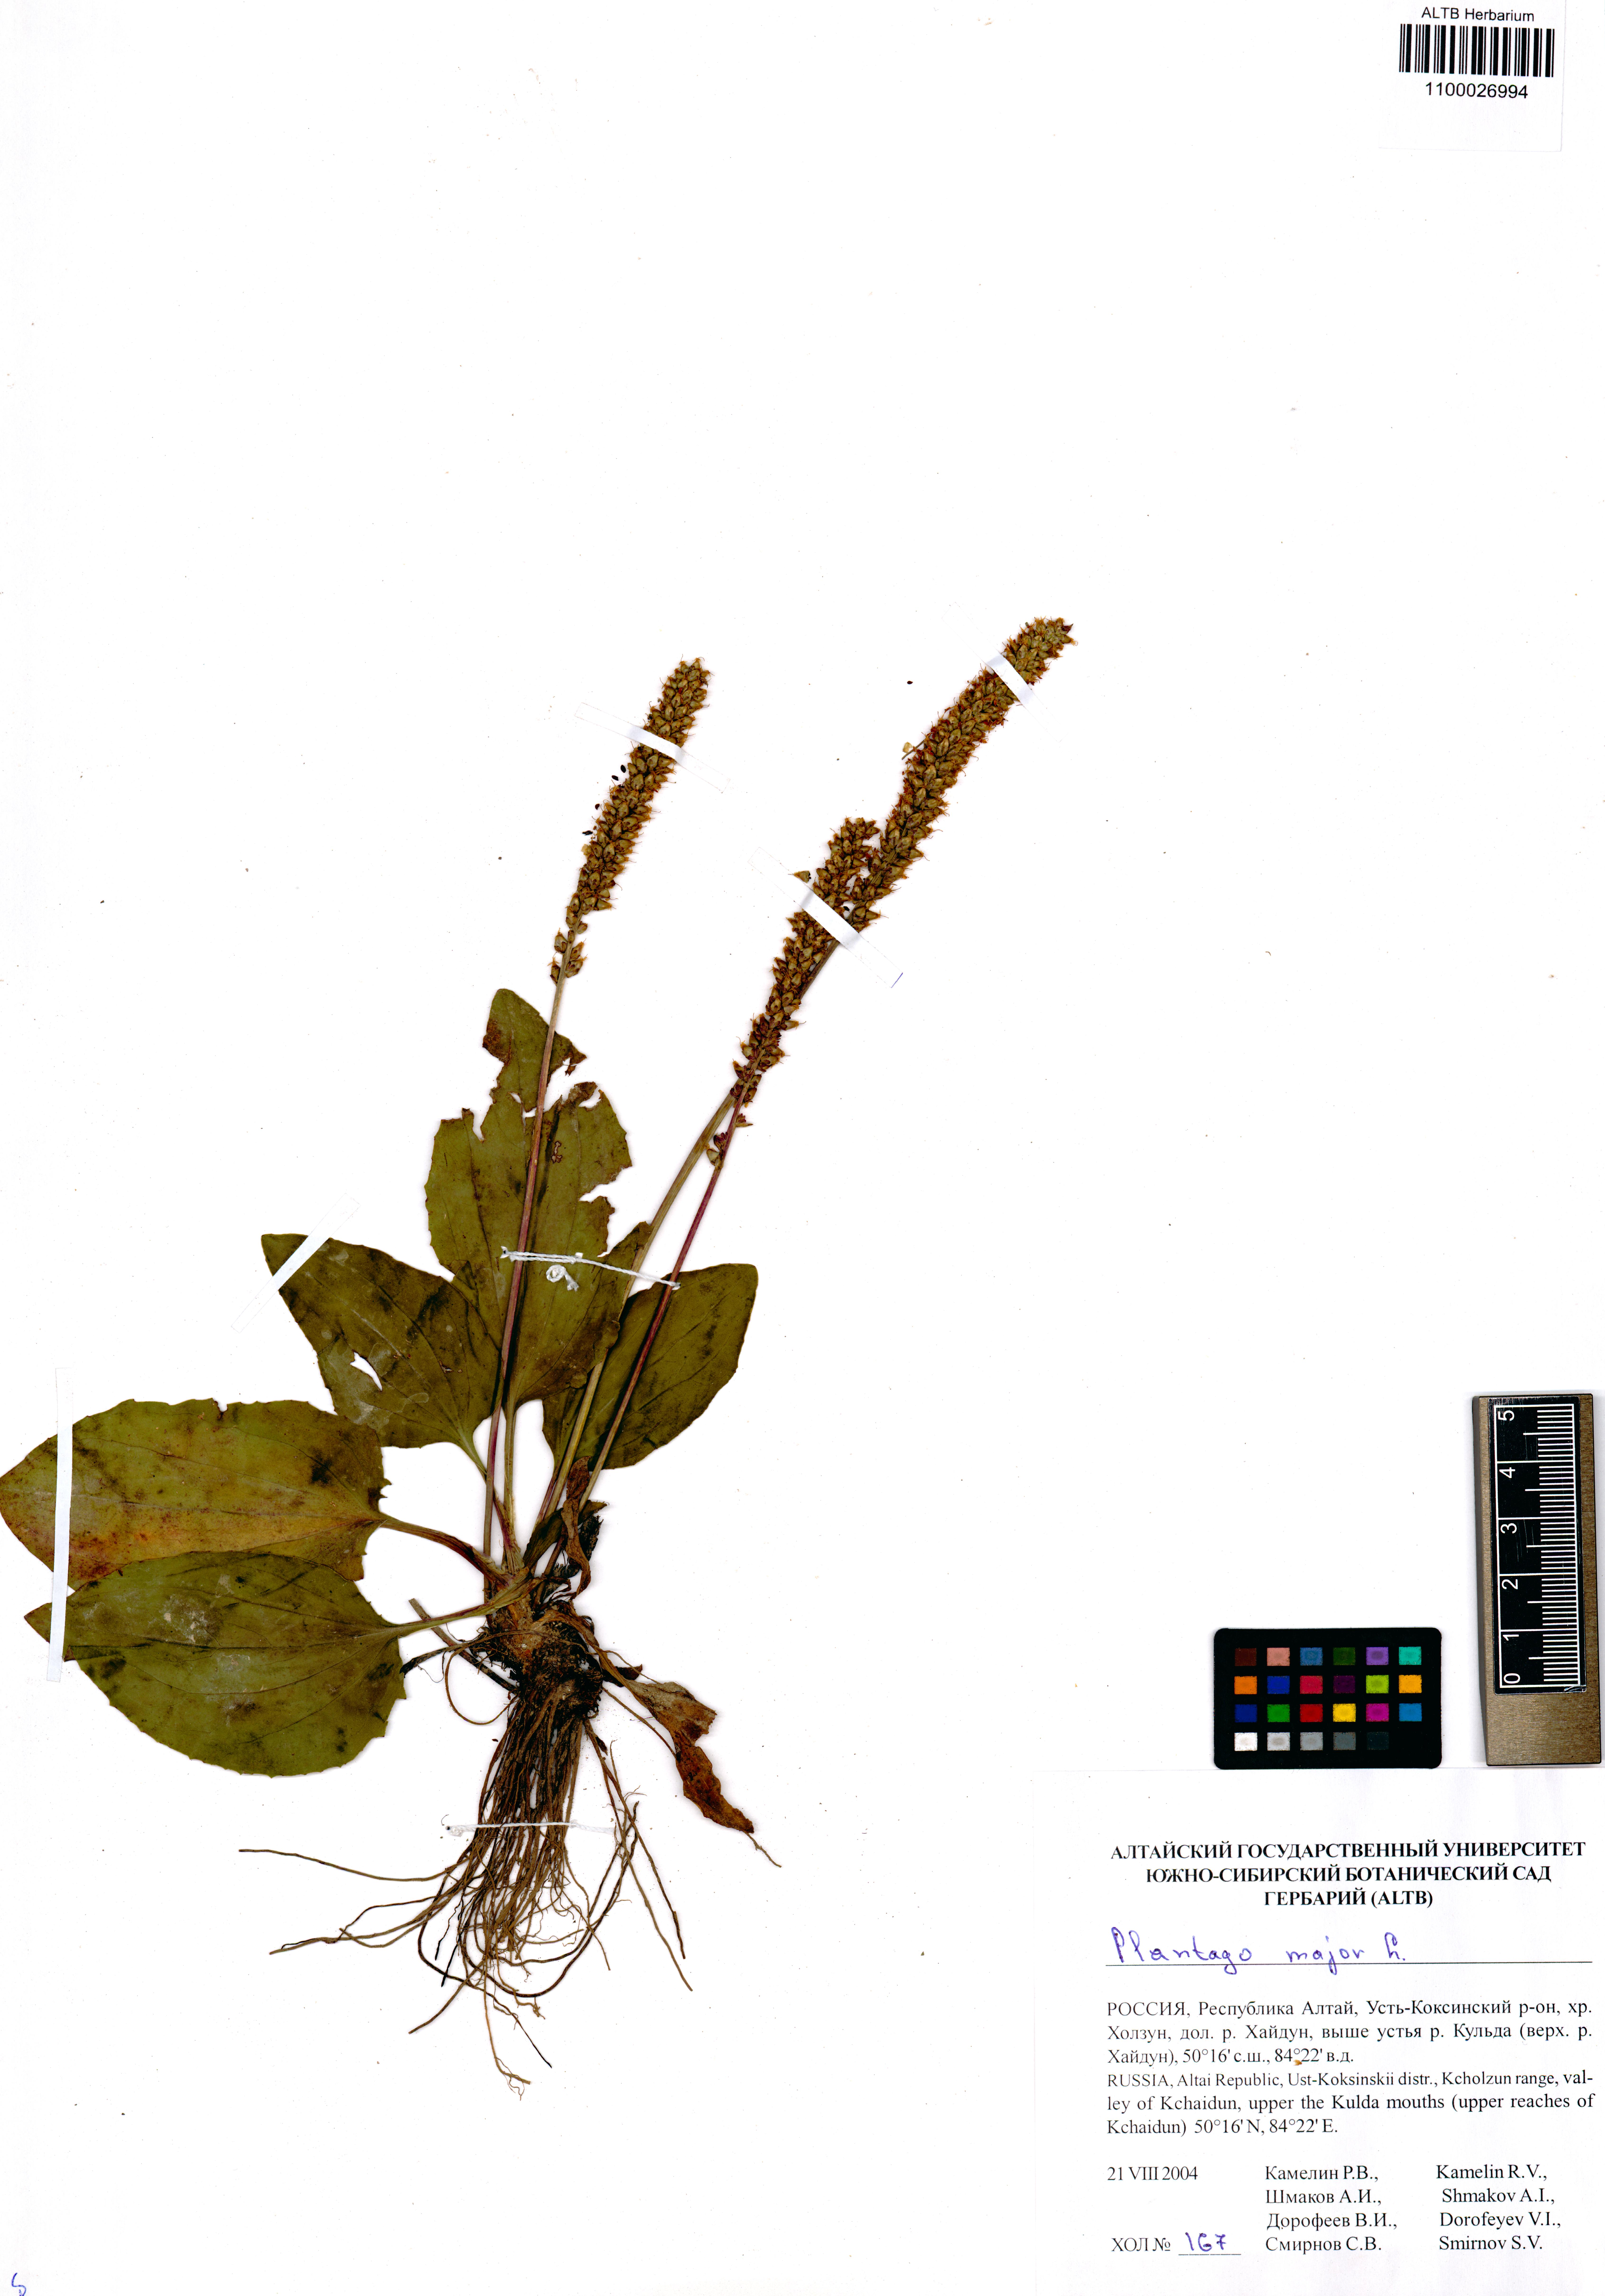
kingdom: Plantae
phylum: Tracheophyta
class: Magnoliopsida
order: Lamiales
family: Plantaginaceae
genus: Plantago
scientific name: Plantago major
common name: Common plantain
